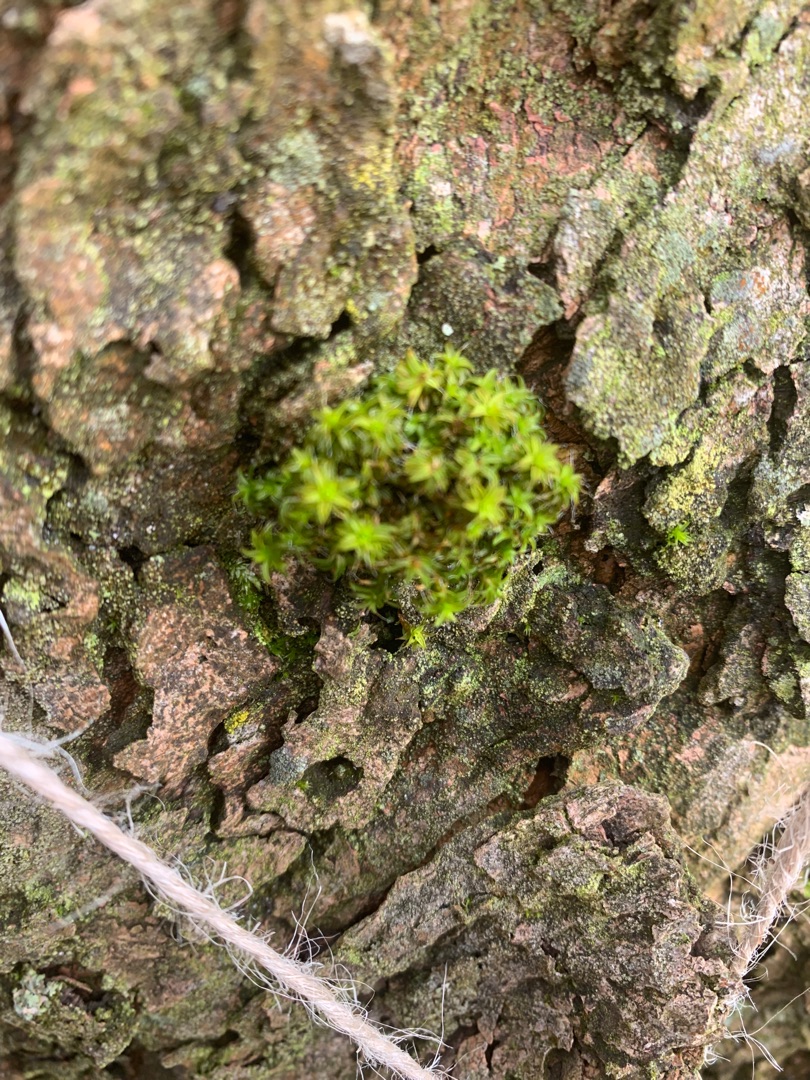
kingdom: Plantae
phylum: Bryophyta
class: Bryopsida
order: Pottiales
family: Pottiaceae
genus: Syntrichia
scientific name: Syntrichia ruralis
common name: Tag-hårstjerne
